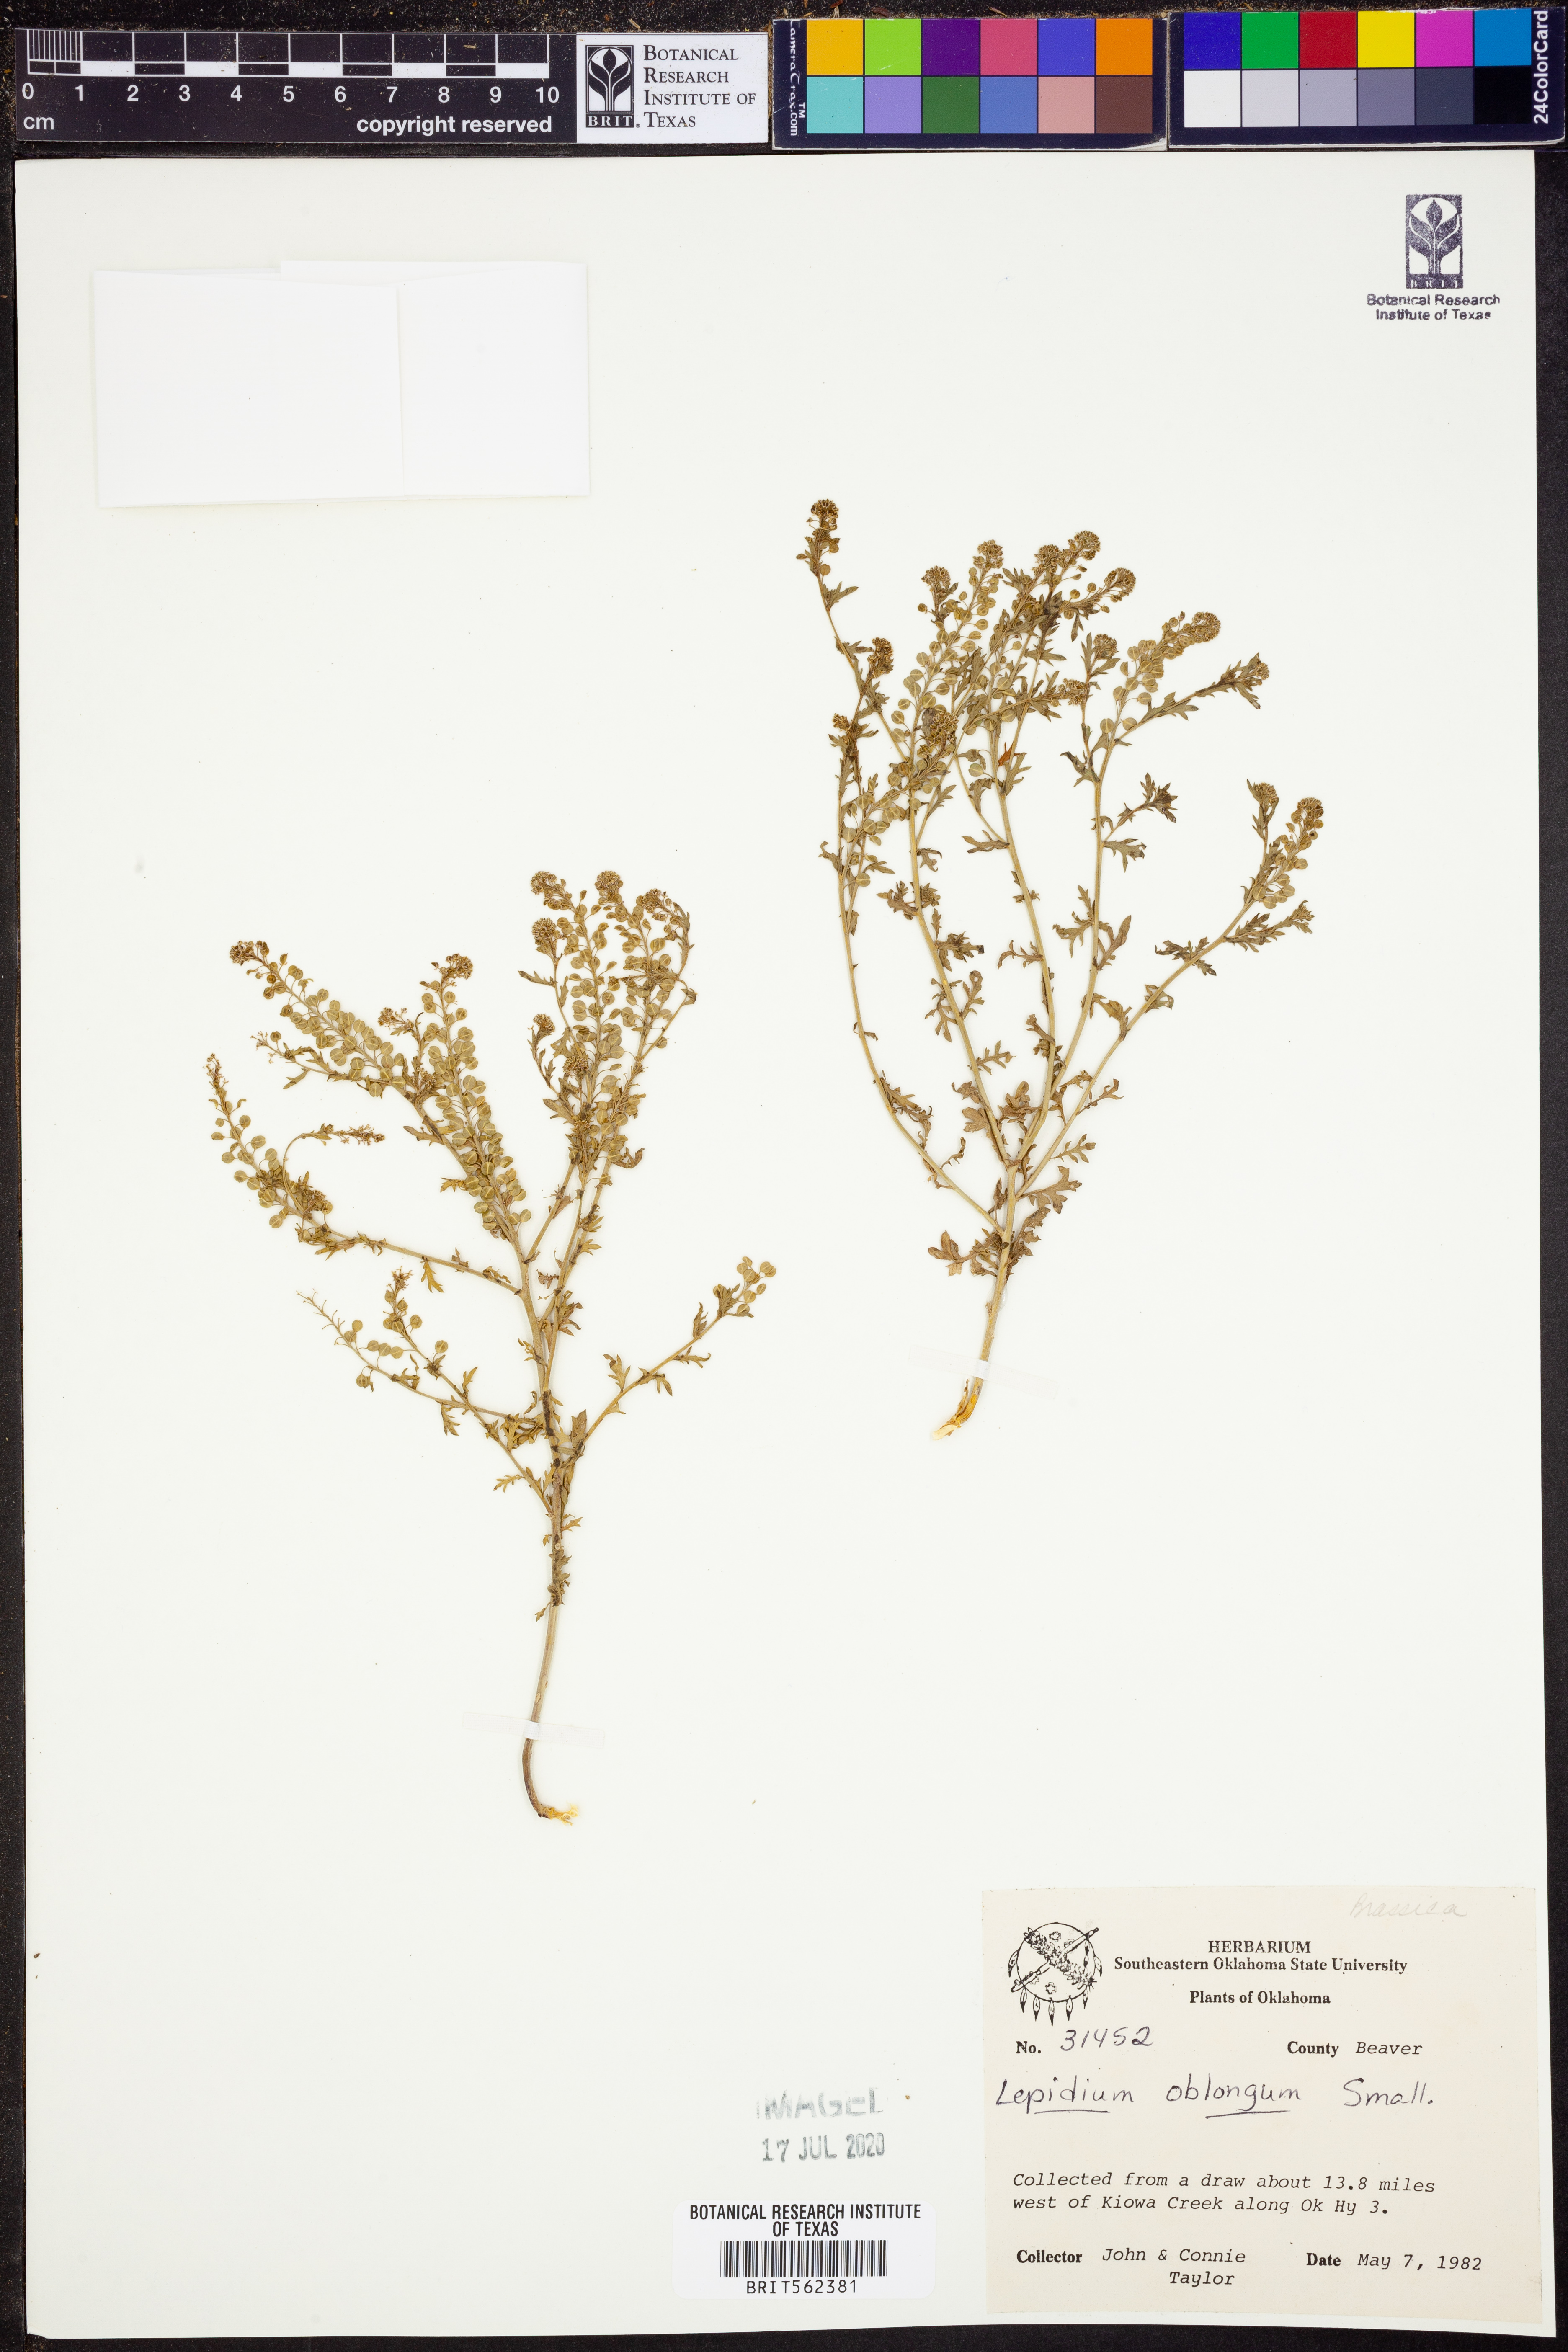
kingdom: Plantae
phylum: Tracheophyta
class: Magnoliopsida
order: Brassicales
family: Brassicaceae
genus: Lepidium
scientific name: Lepidium oblongum
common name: Veiny pepperweed
